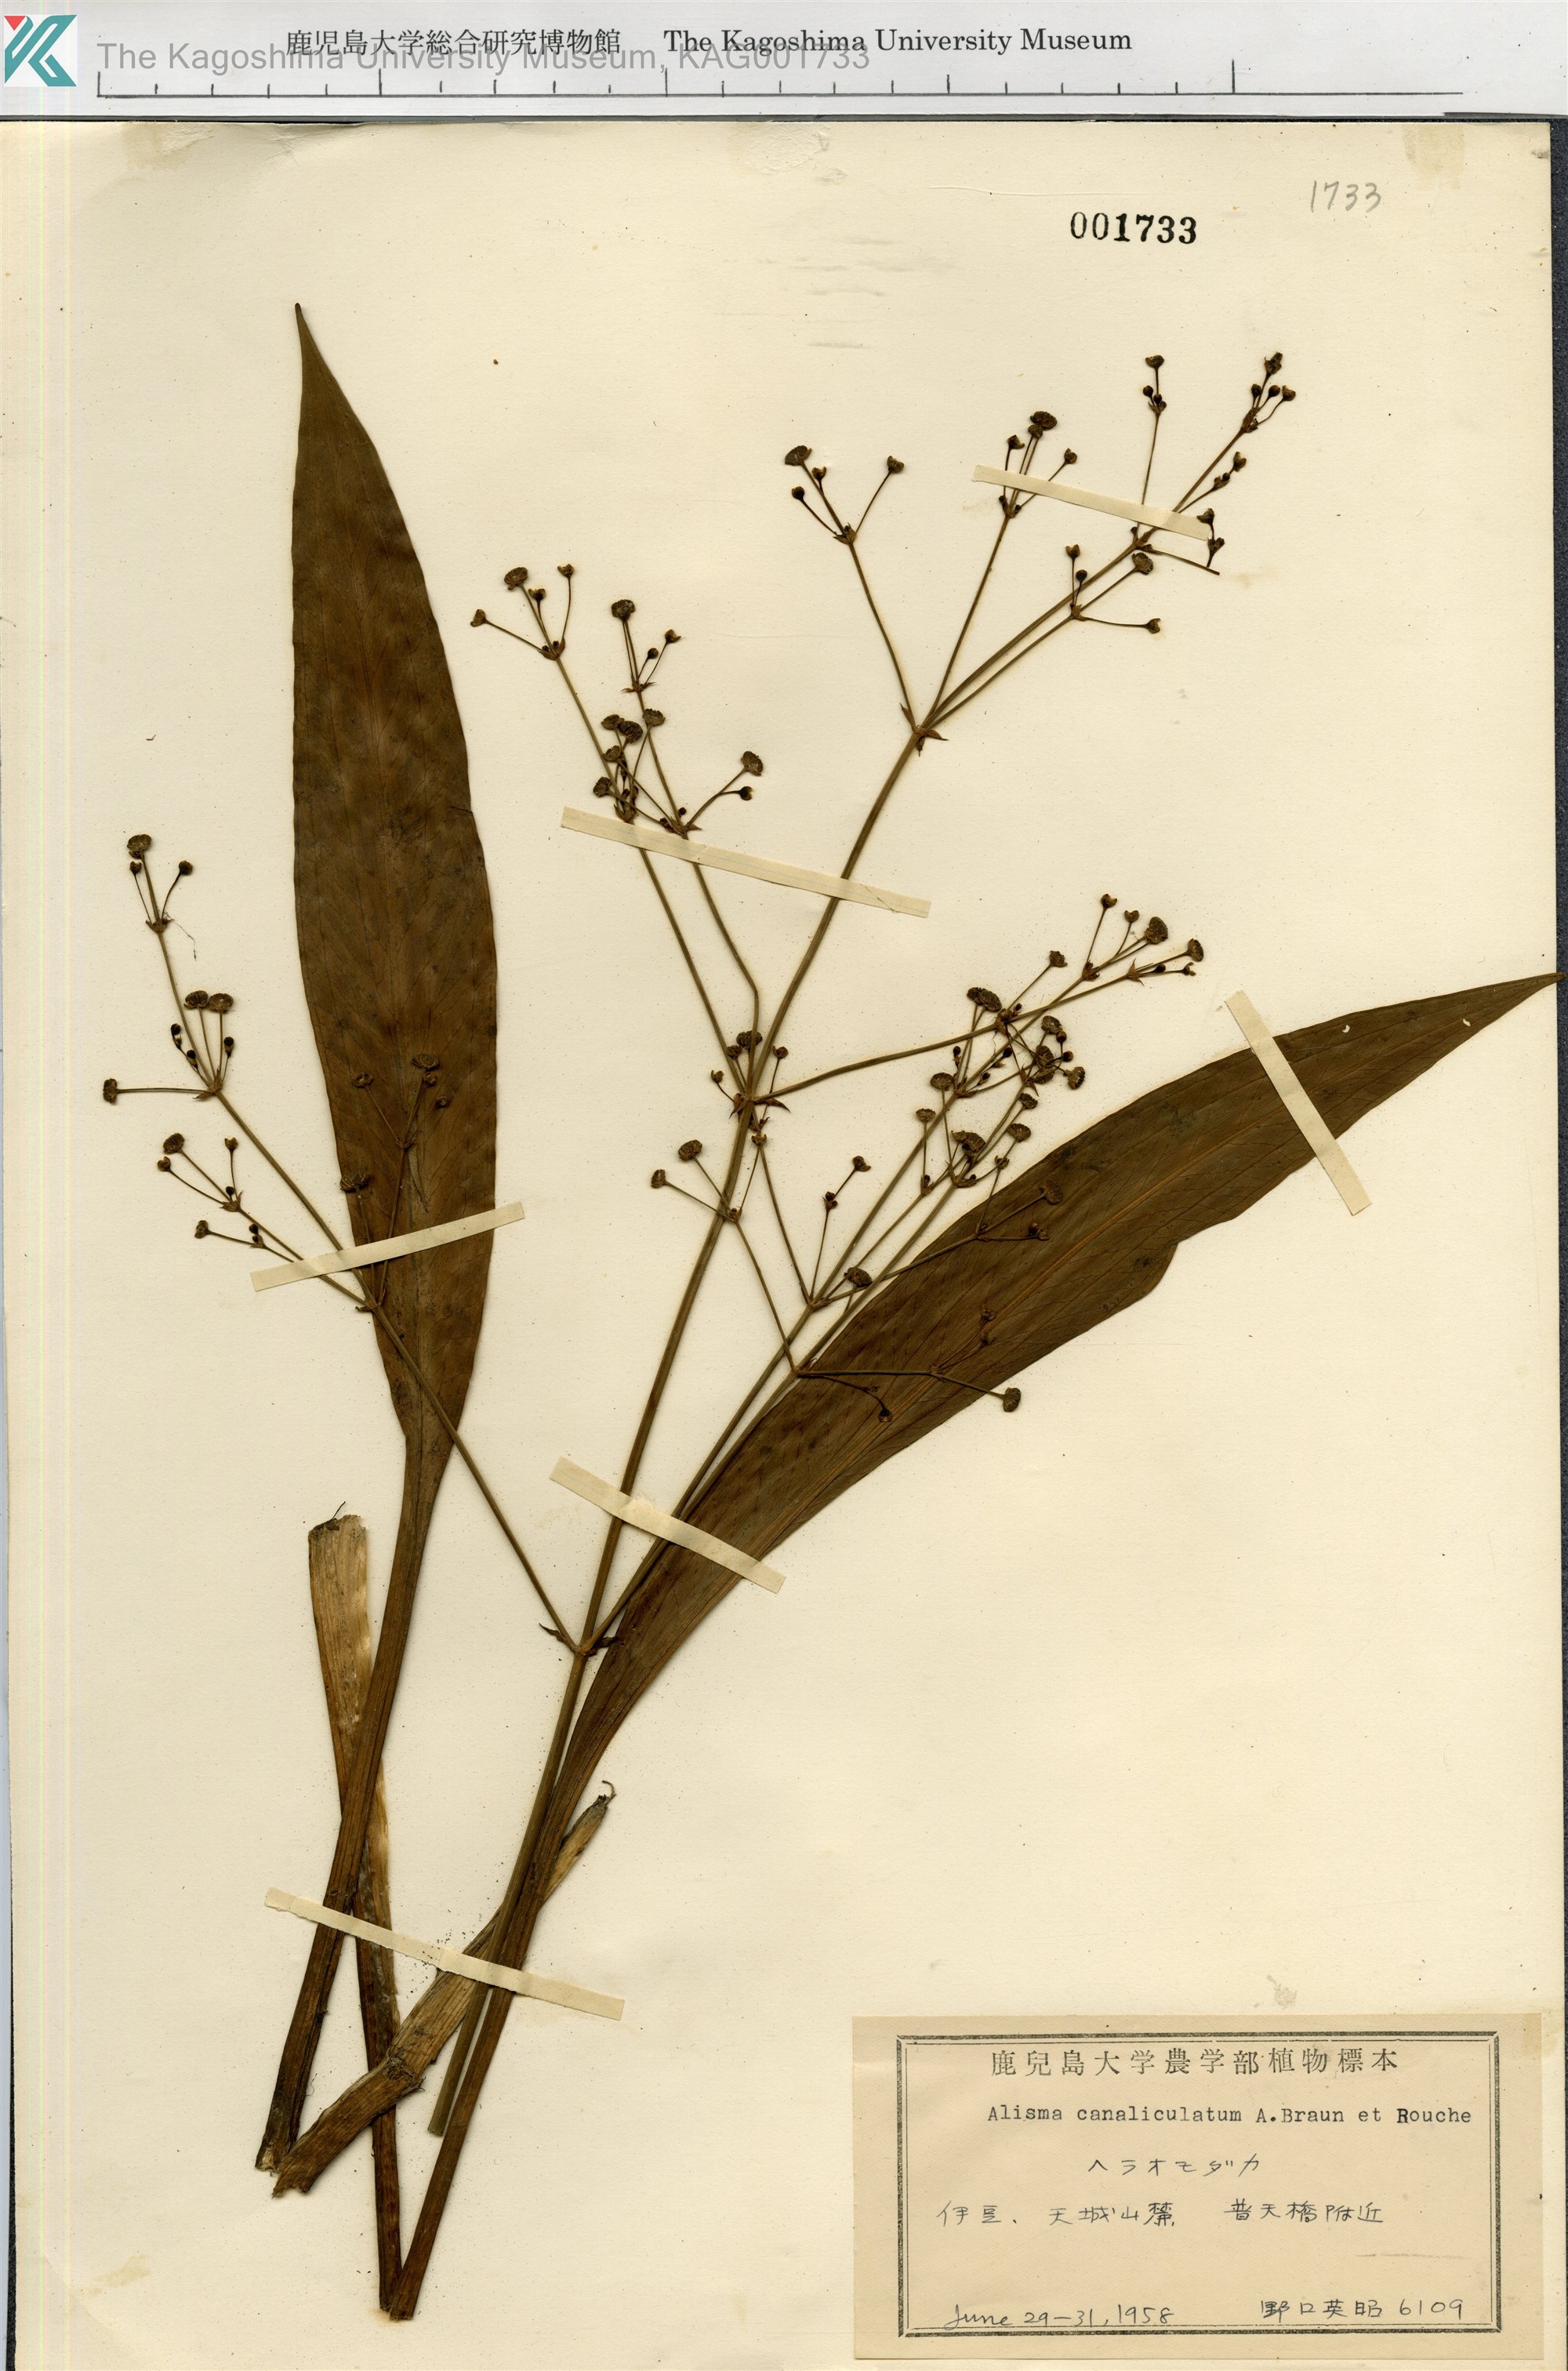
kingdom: Plantae
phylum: Tracheophyta
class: Liliopsida
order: Alismatales
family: Alismataceae
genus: Alisma
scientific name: Alisma canaliculatum
